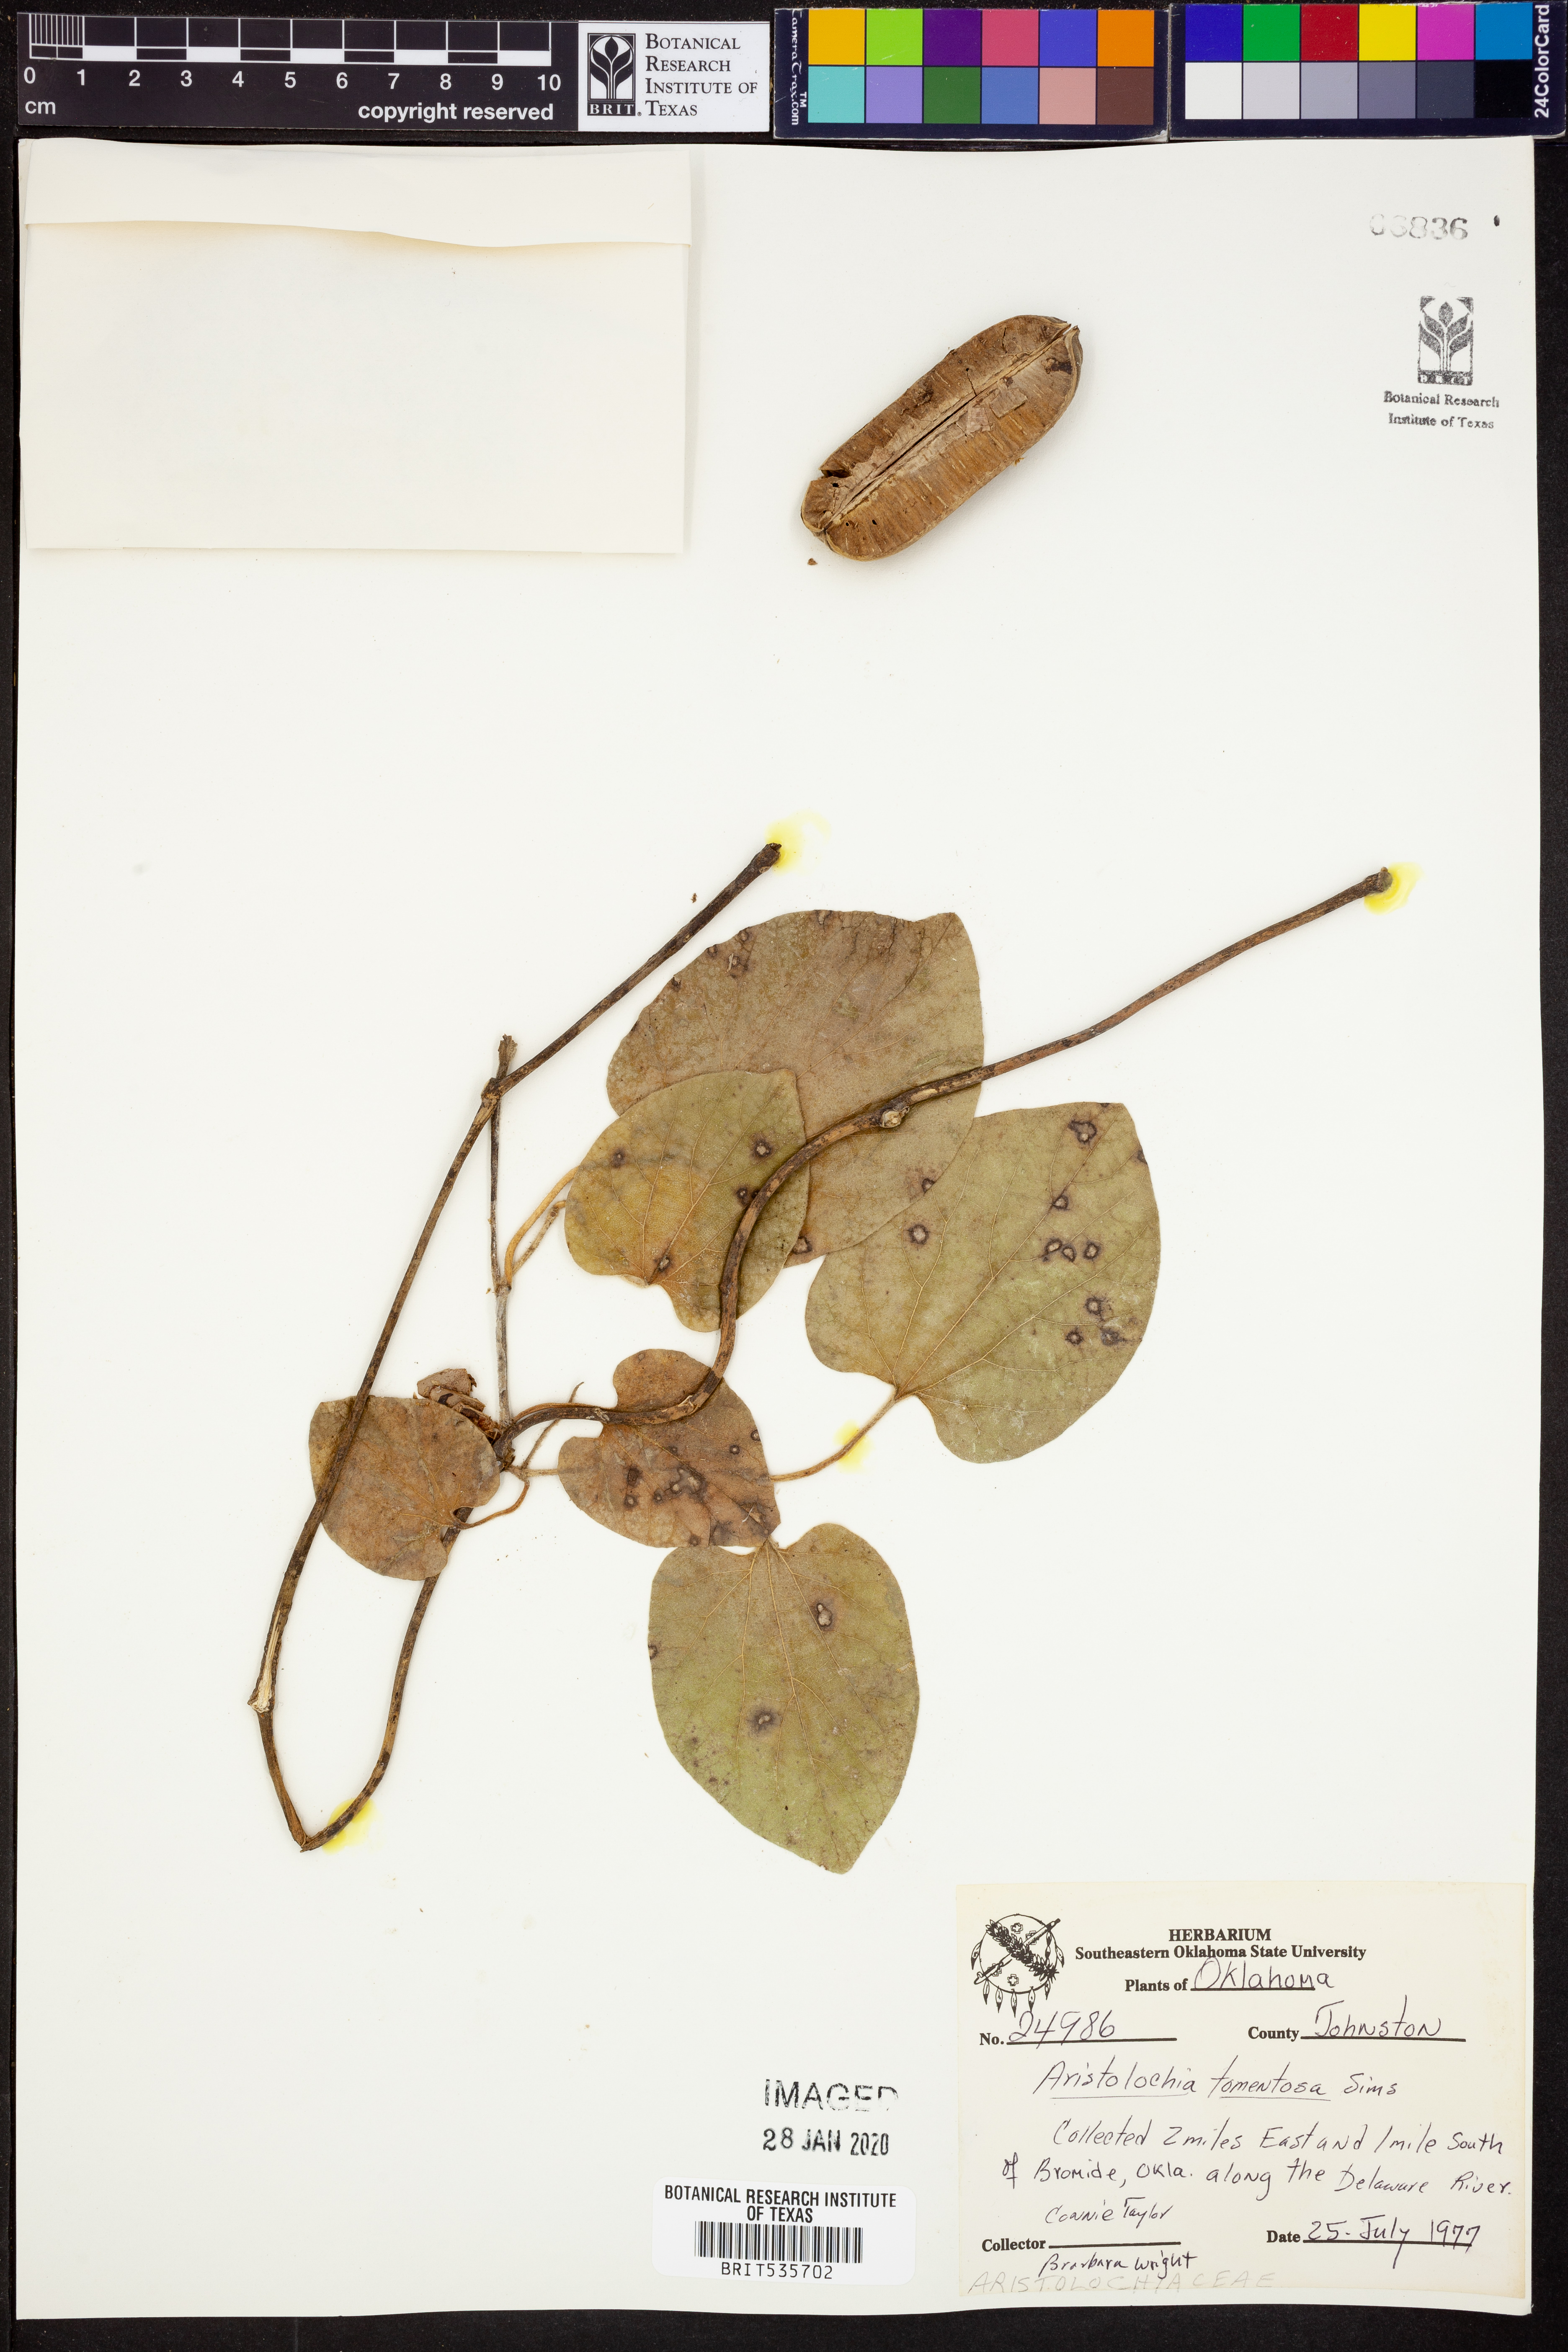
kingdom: Plantae
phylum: Tracheophyta
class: Magnoliopsida
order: Piperales
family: Aristolochiaceae
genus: Isotrema
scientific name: Isotrema tomentosum
